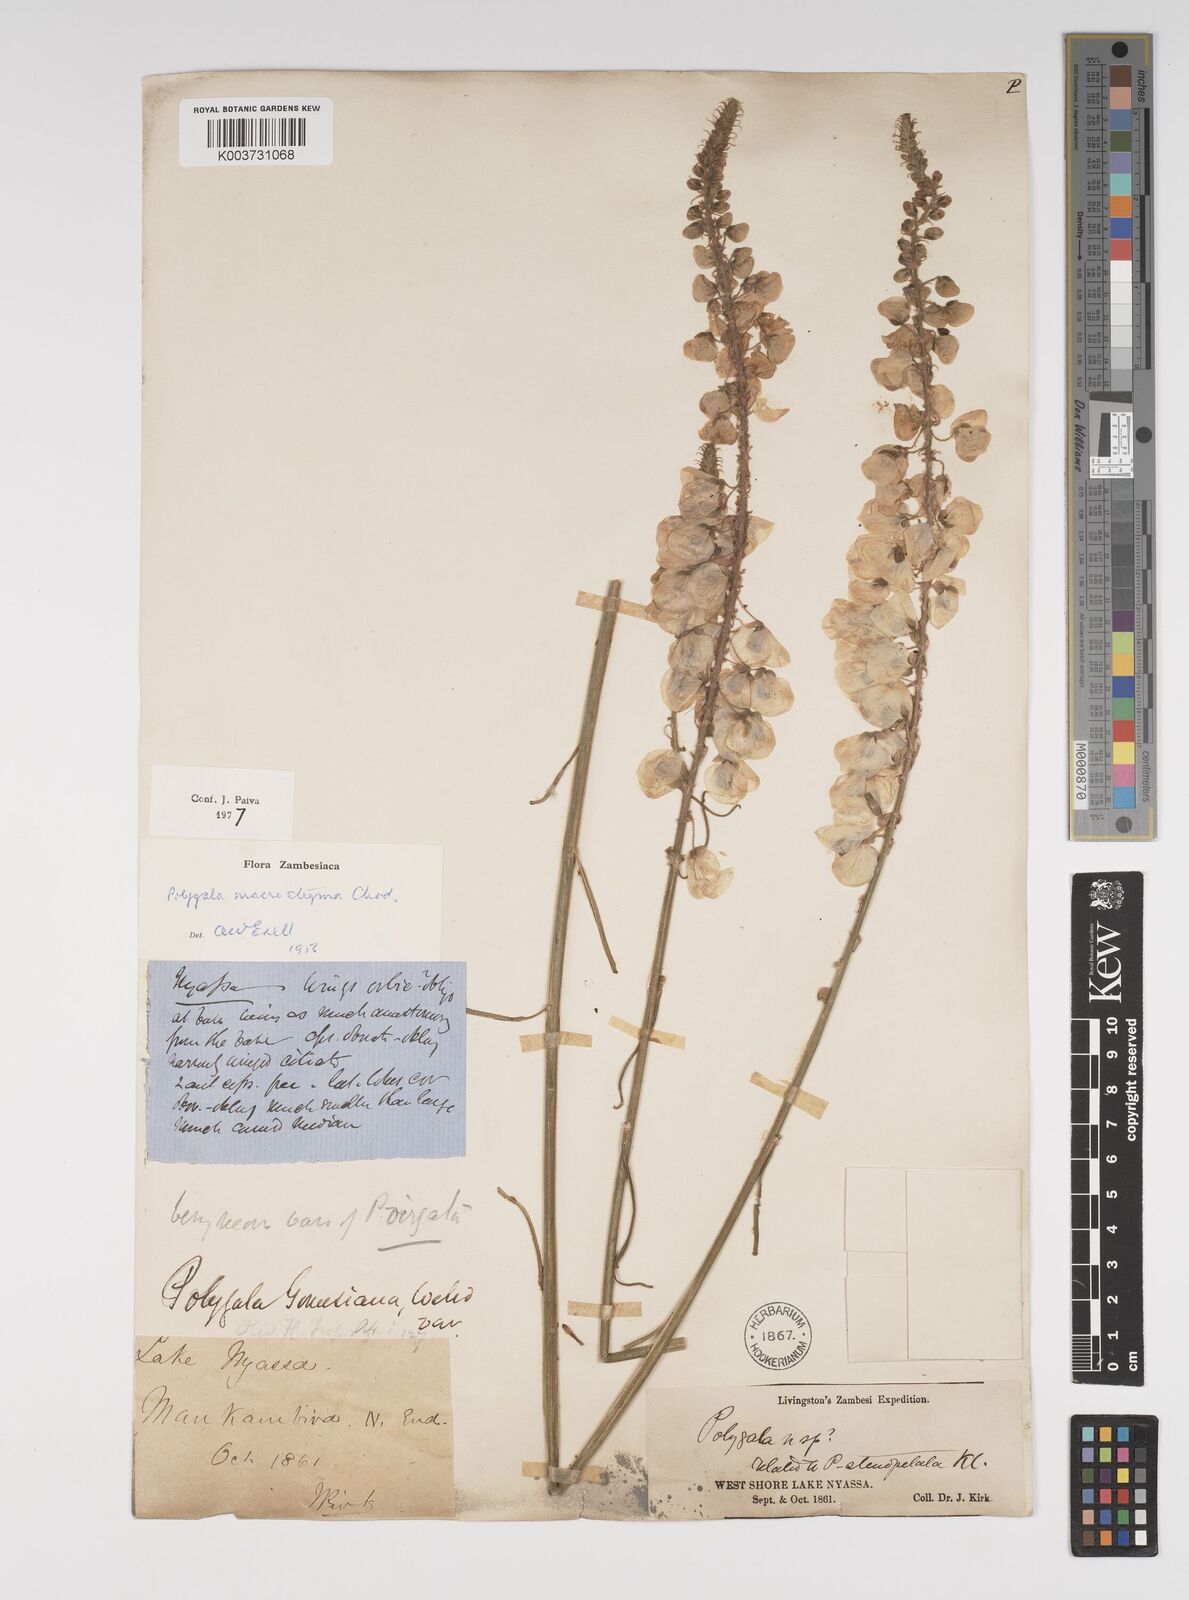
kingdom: Plantae
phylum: Tracheophyta
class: Magnoliopsida
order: Fabales
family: Polygalaceae
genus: Polygala
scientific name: Polygala macrostigma
